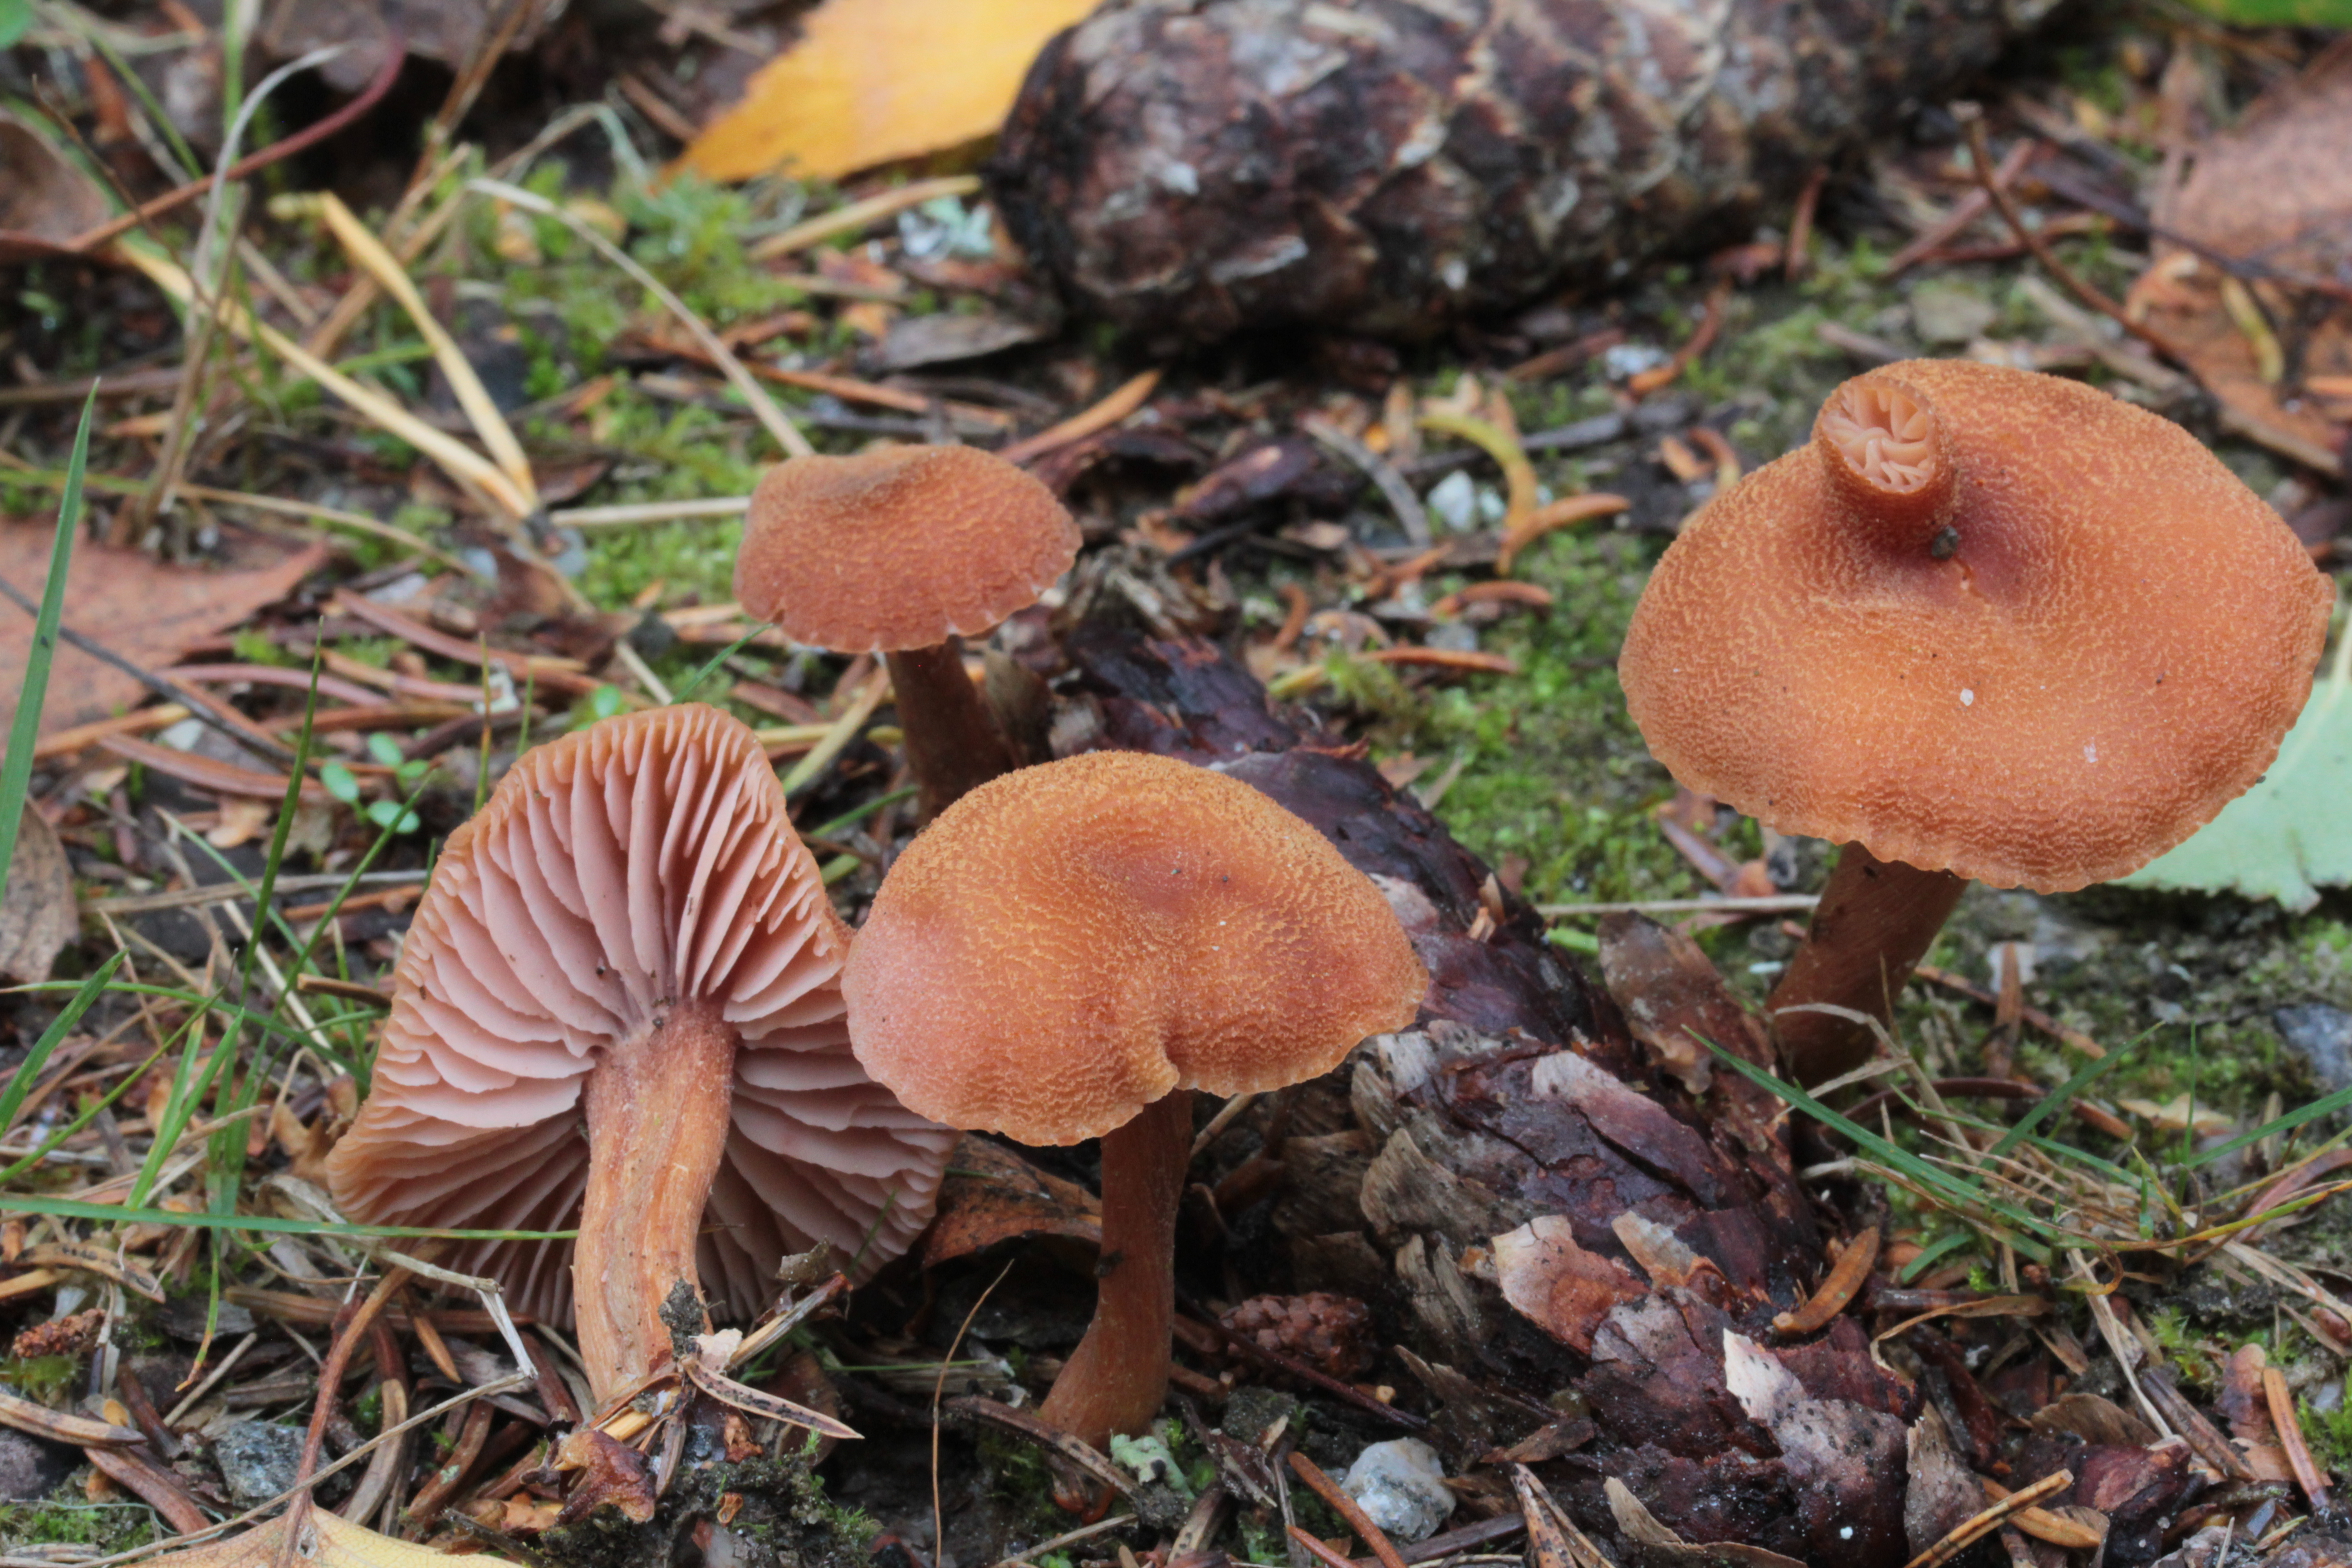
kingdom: Fungi
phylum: Basidiomycota
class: Agaricomycetes
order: Agaricales
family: Hydnangiaceae
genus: Laccaria
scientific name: Laccaria bicolor
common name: Bicoloured deceiver
